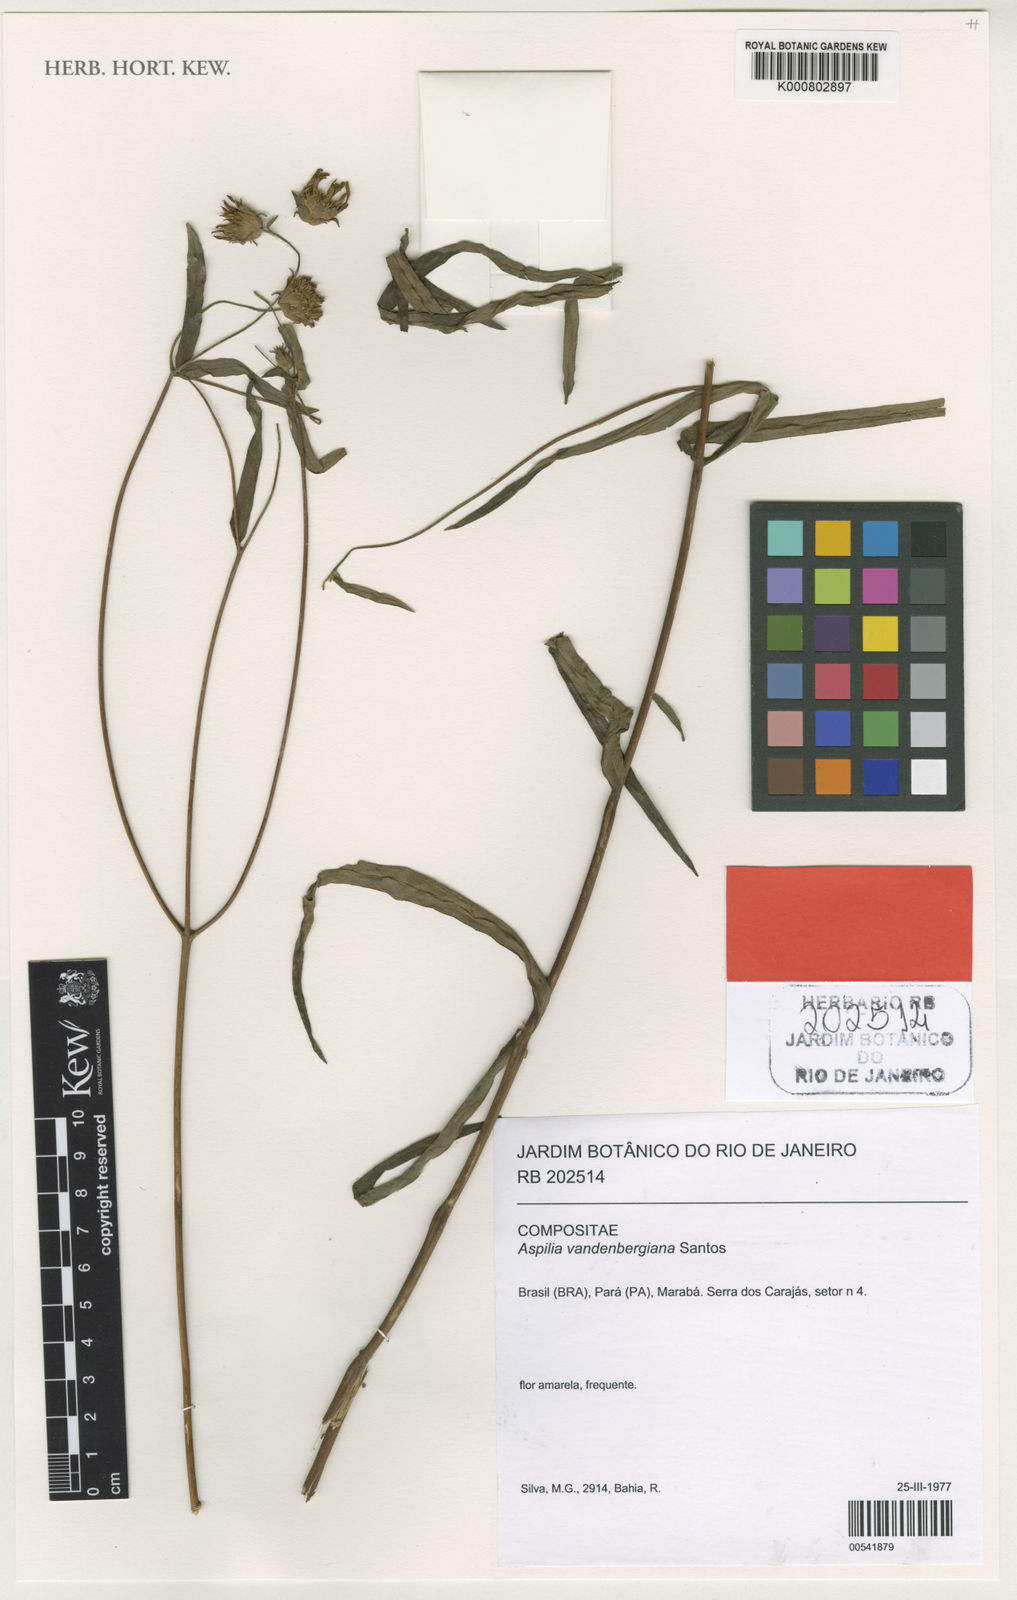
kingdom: Plantae
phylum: Tracheophyta
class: Magnoliopsida
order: Asterales
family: Asteraceae
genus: Wedelia
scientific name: Wedelia attenuata
